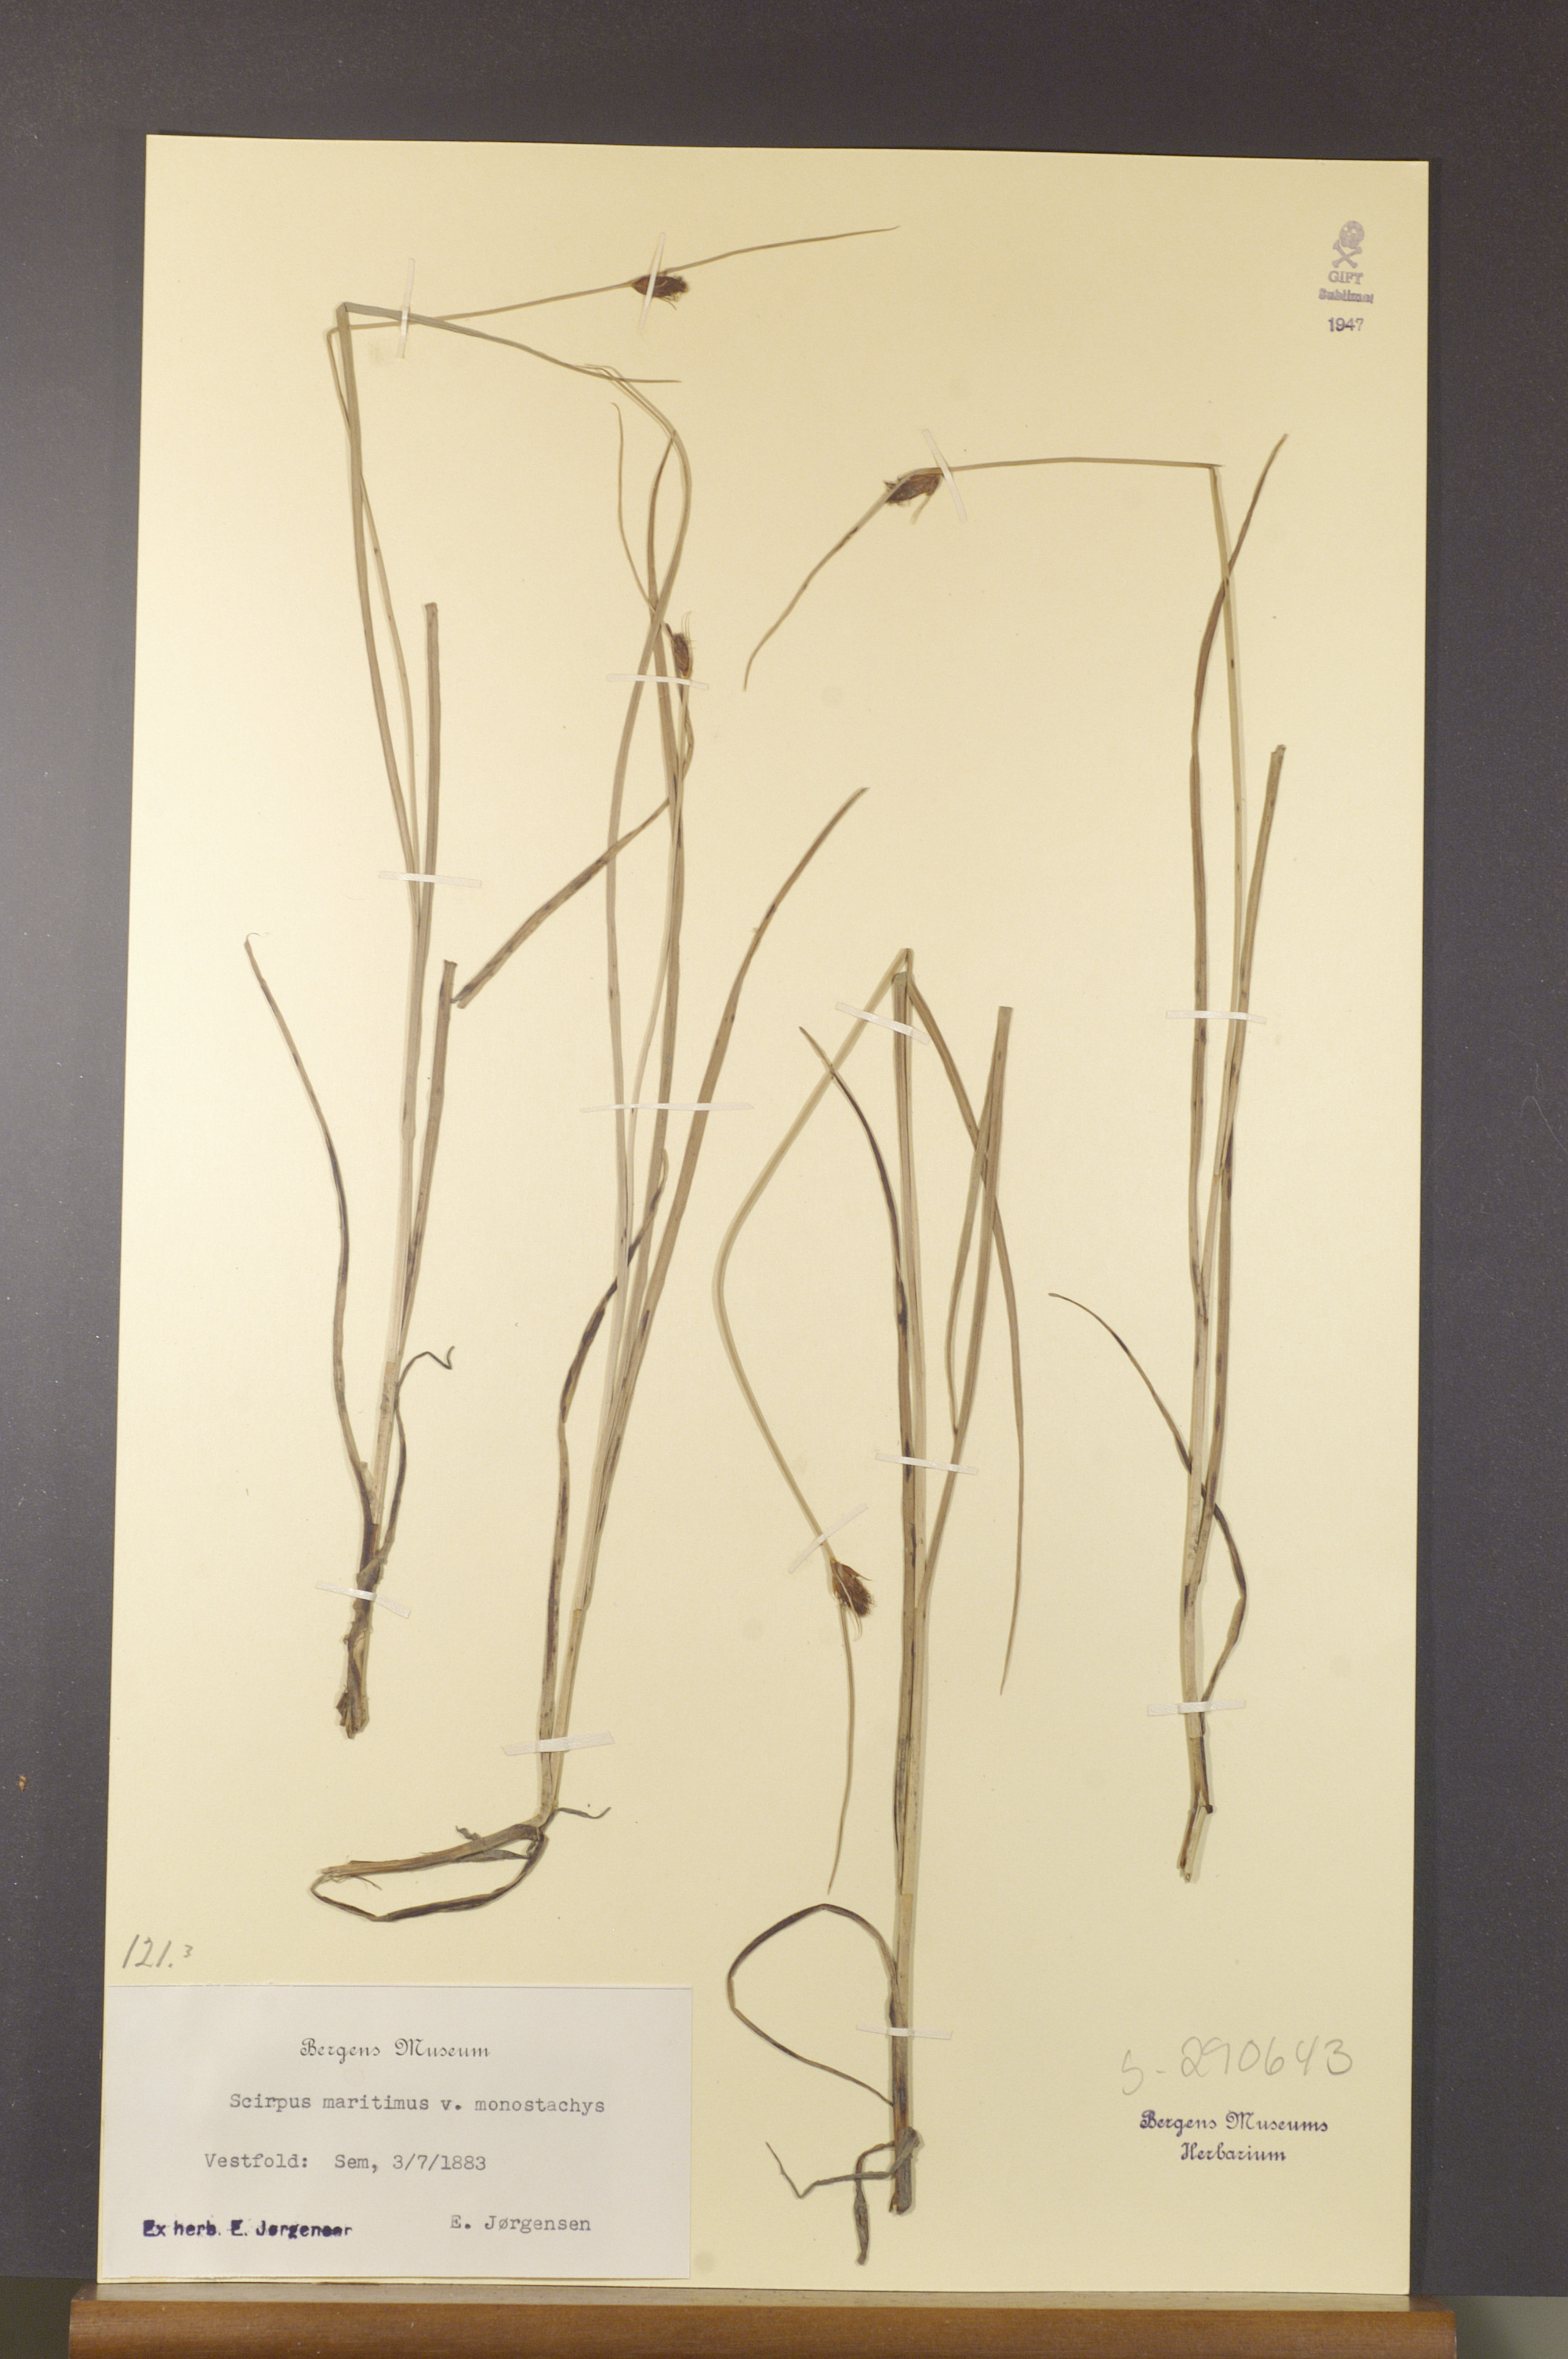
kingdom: Plantae
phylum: Tracheophyta
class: Liliopsida
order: Poales
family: Cyperaceae
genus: Bolboschoenus
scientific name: Bolboschoenus maritimus
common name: Sea club-rush
